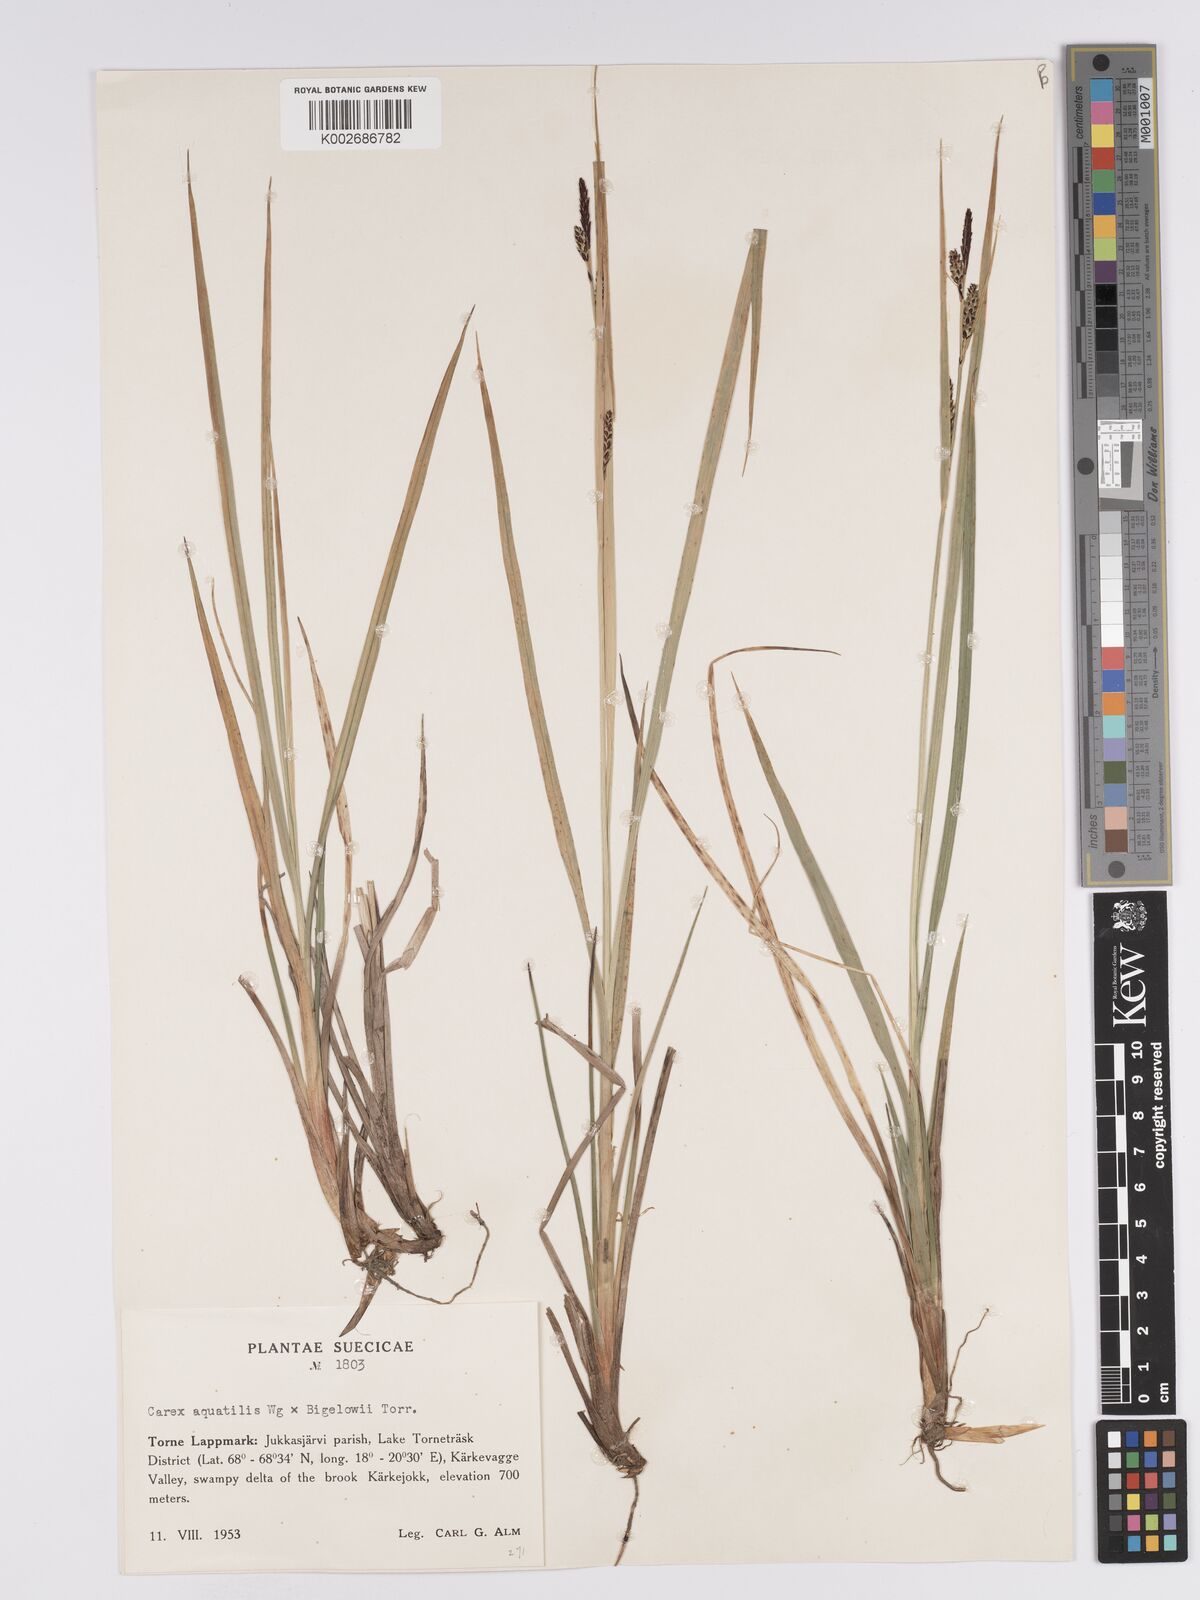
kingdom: Plantae
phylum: Tracheophyta
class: Liliopsida
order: Poales
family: Cyperaceae
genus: Carex
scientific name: Carex aquatilis
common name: Water sedge
